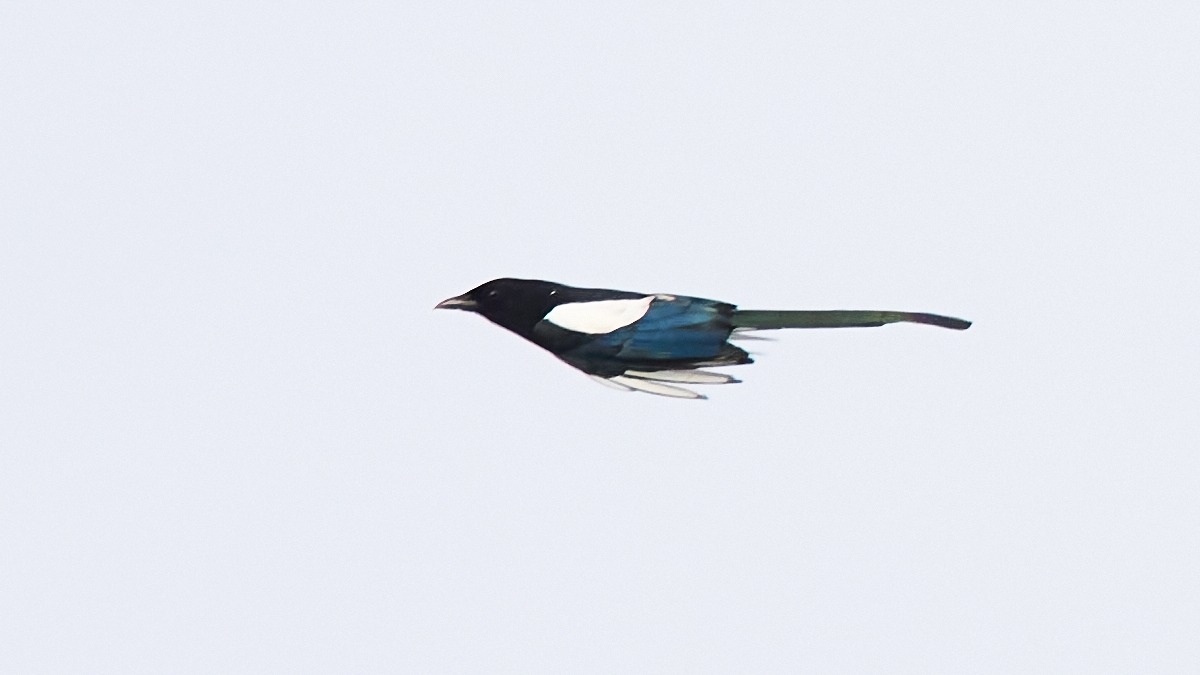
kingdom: Animalia
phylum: Chordata
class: Aves
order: Passeriformes
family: Corvidae
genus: Pica
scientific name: Pica pica
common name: Husskade
